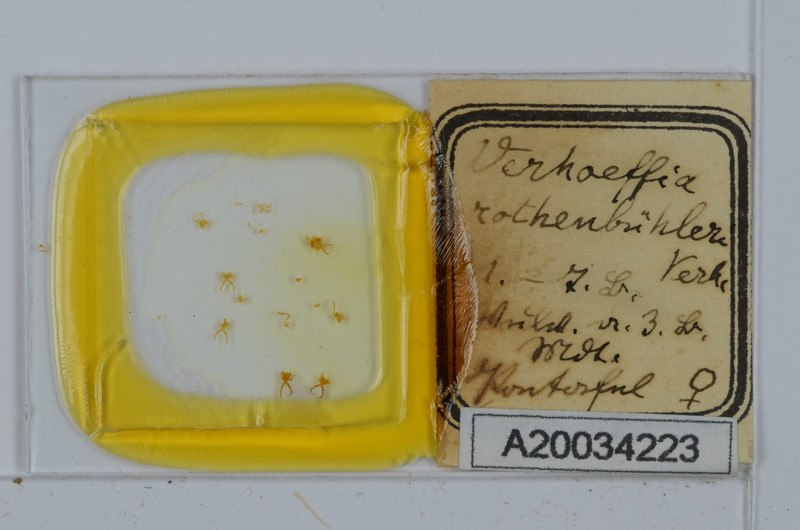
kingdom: Animalia
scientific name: Animalia
